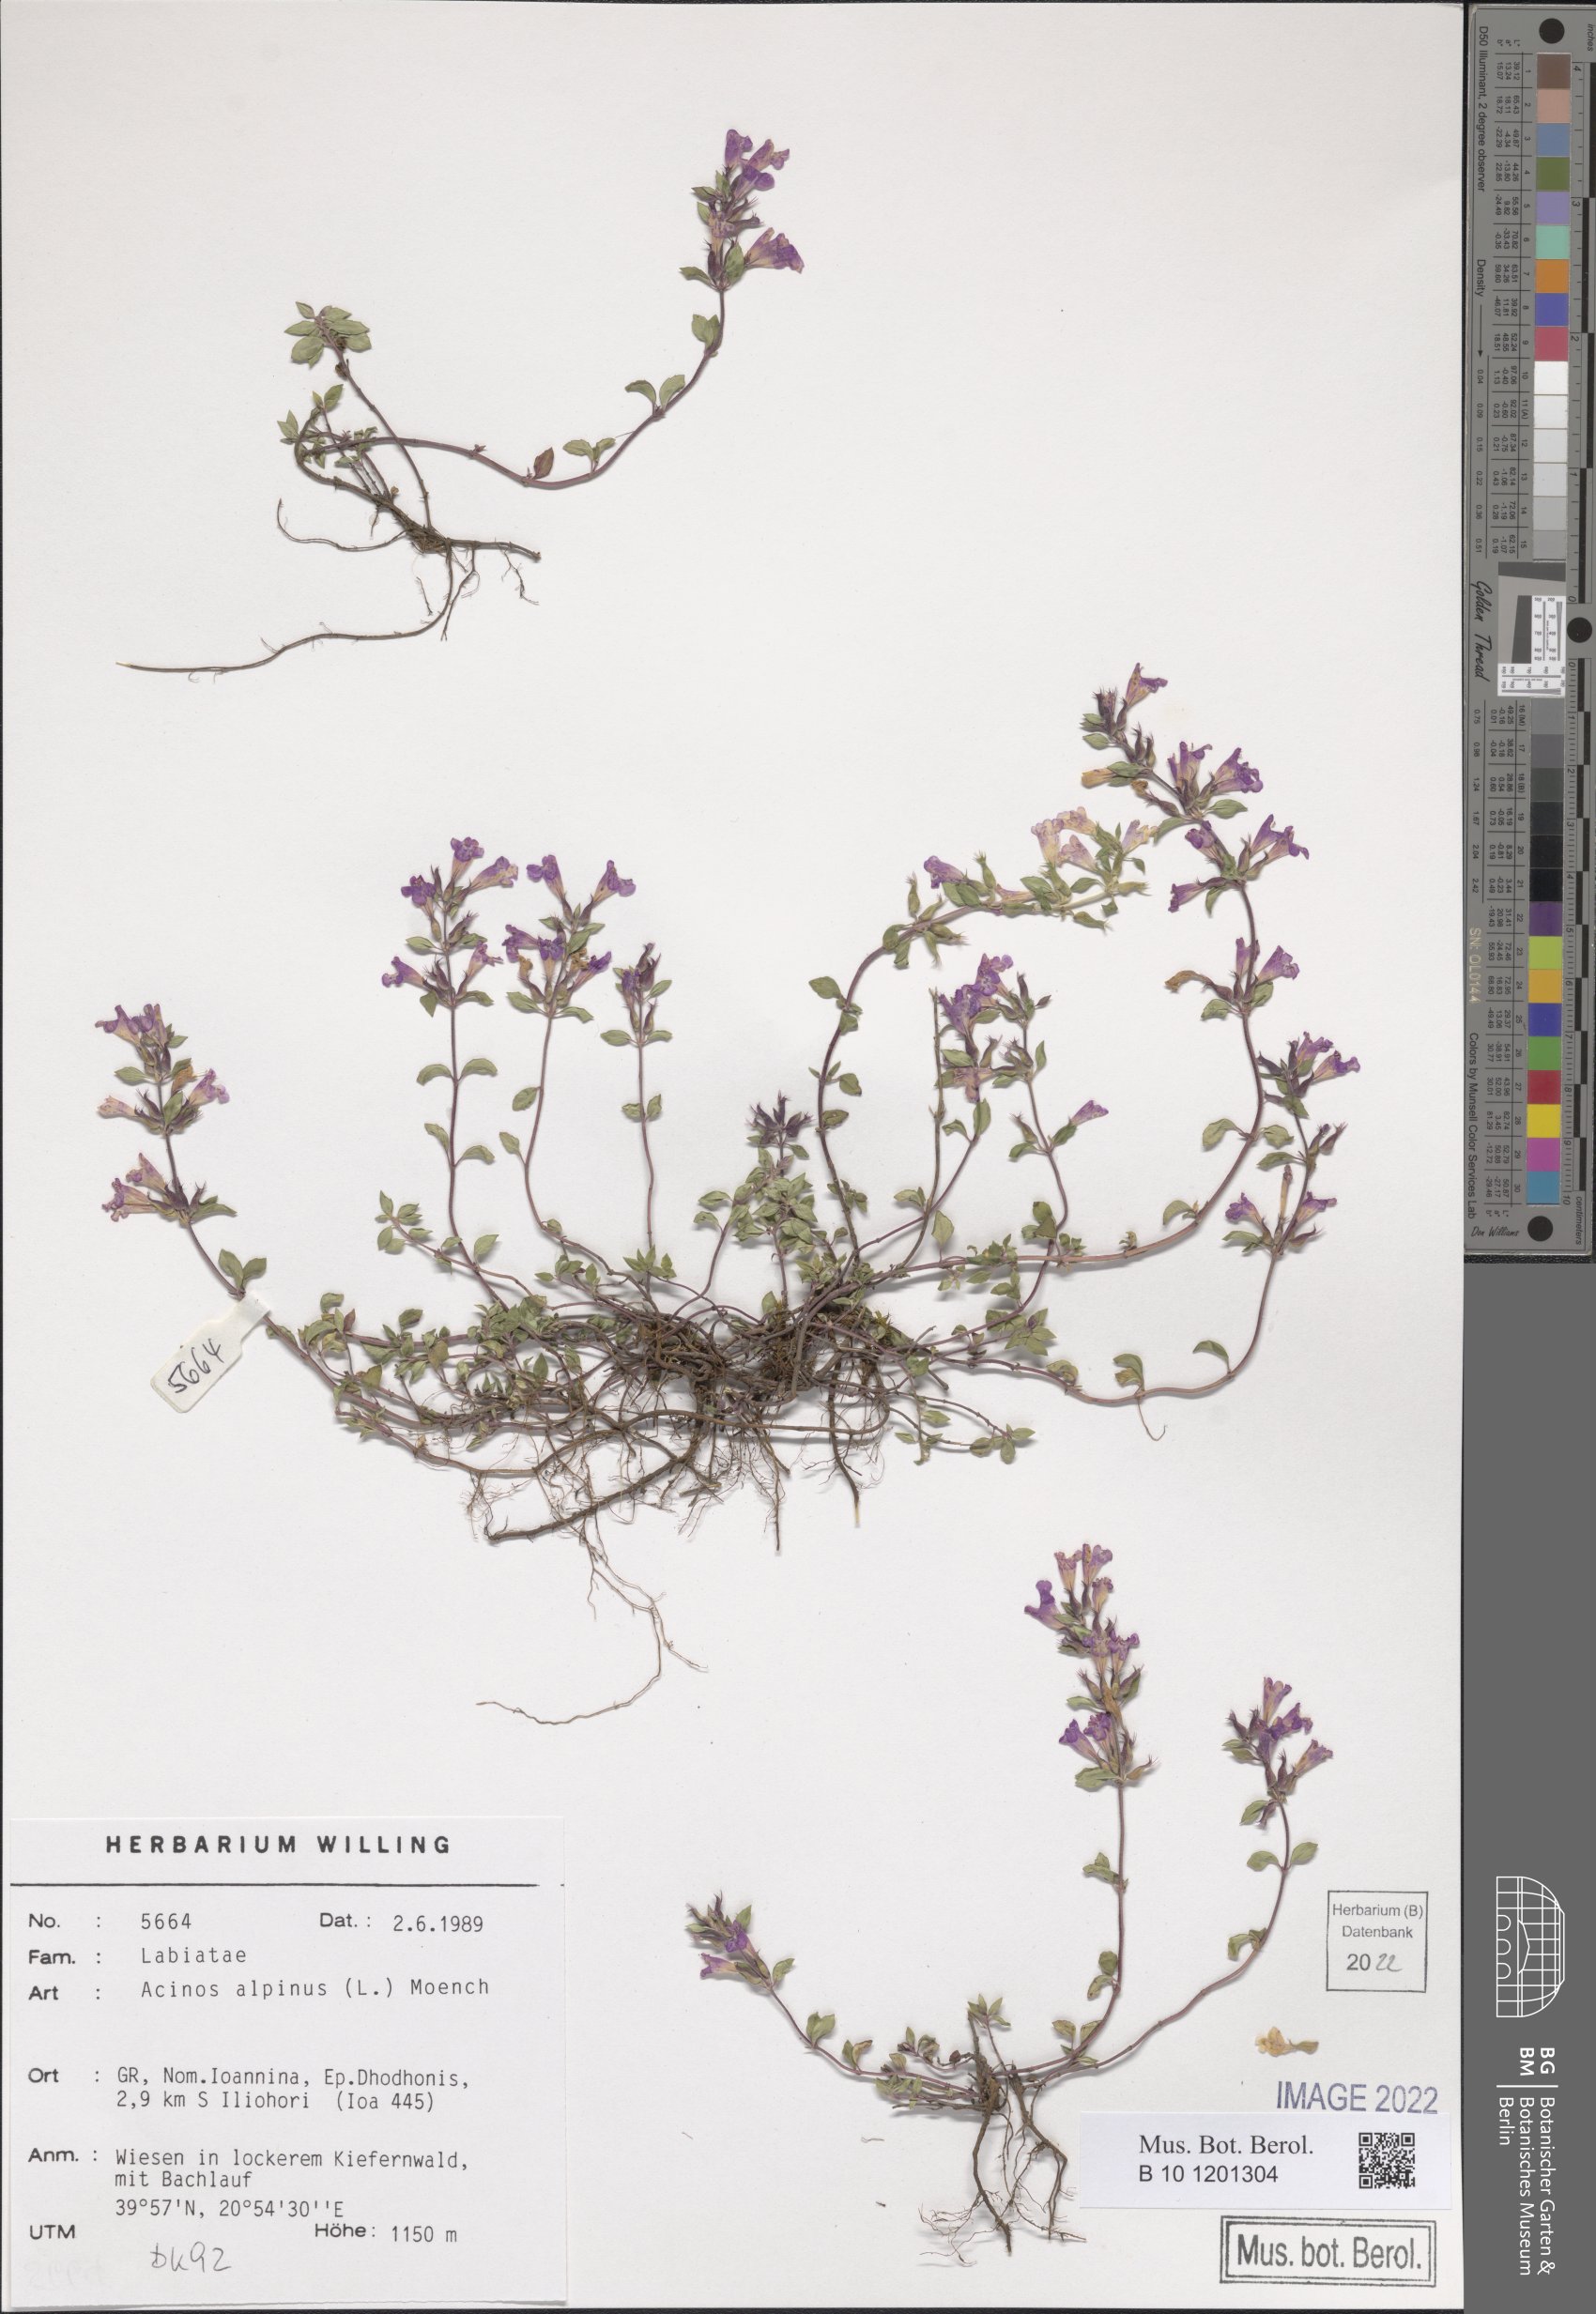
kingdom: Plantae
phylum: Tracheophyta
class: Magnoliopsida
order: Lamiales
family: Lamiaceae
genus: Clinopodium
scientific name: Clinopodium alpinum
